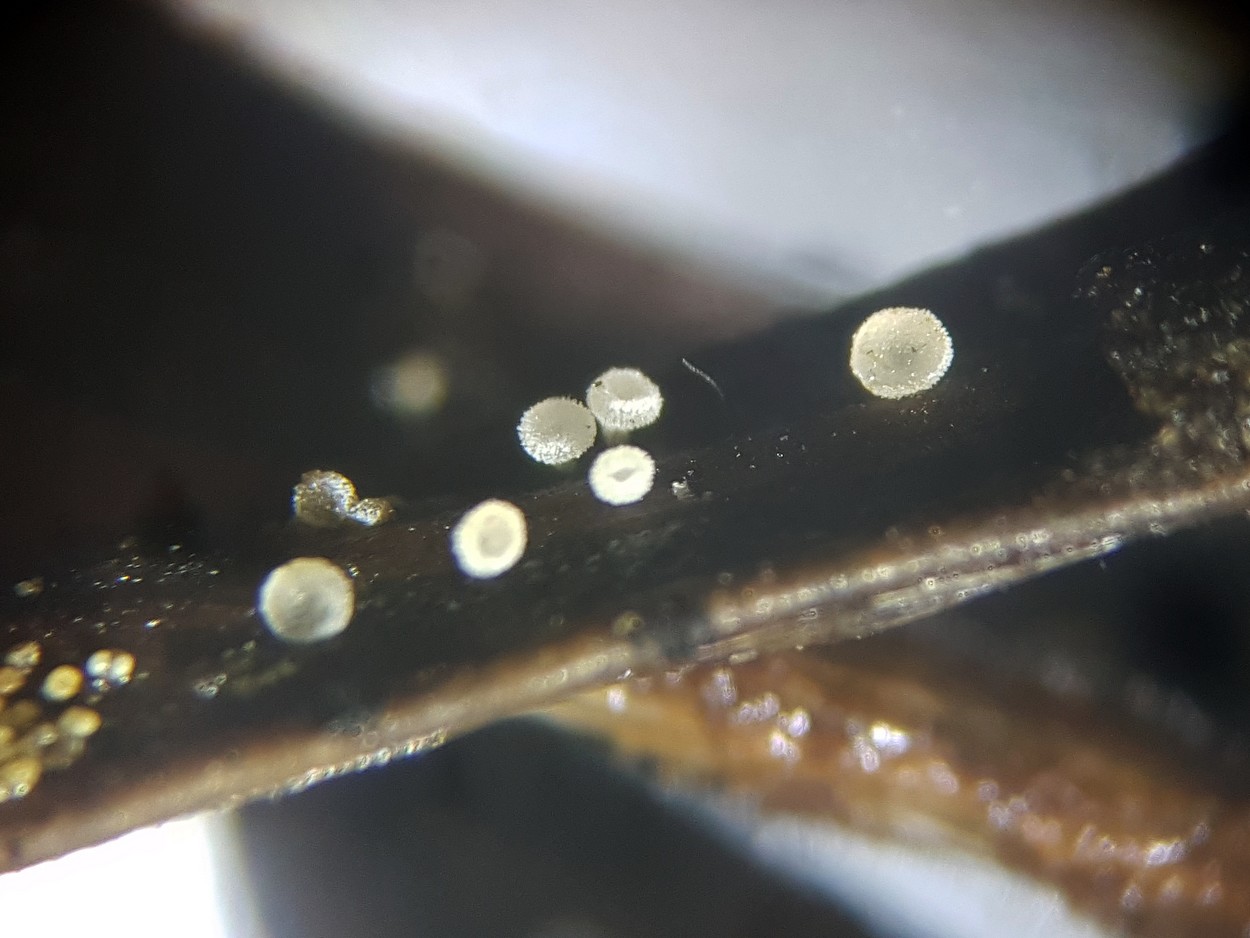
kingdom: Fungi
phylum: Ascomycota
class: Leotiomycetes
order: Helotiales
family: Hyaloscyphaceae
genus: Cistella
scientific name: Cistella acuum
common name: nåle-sirskive
